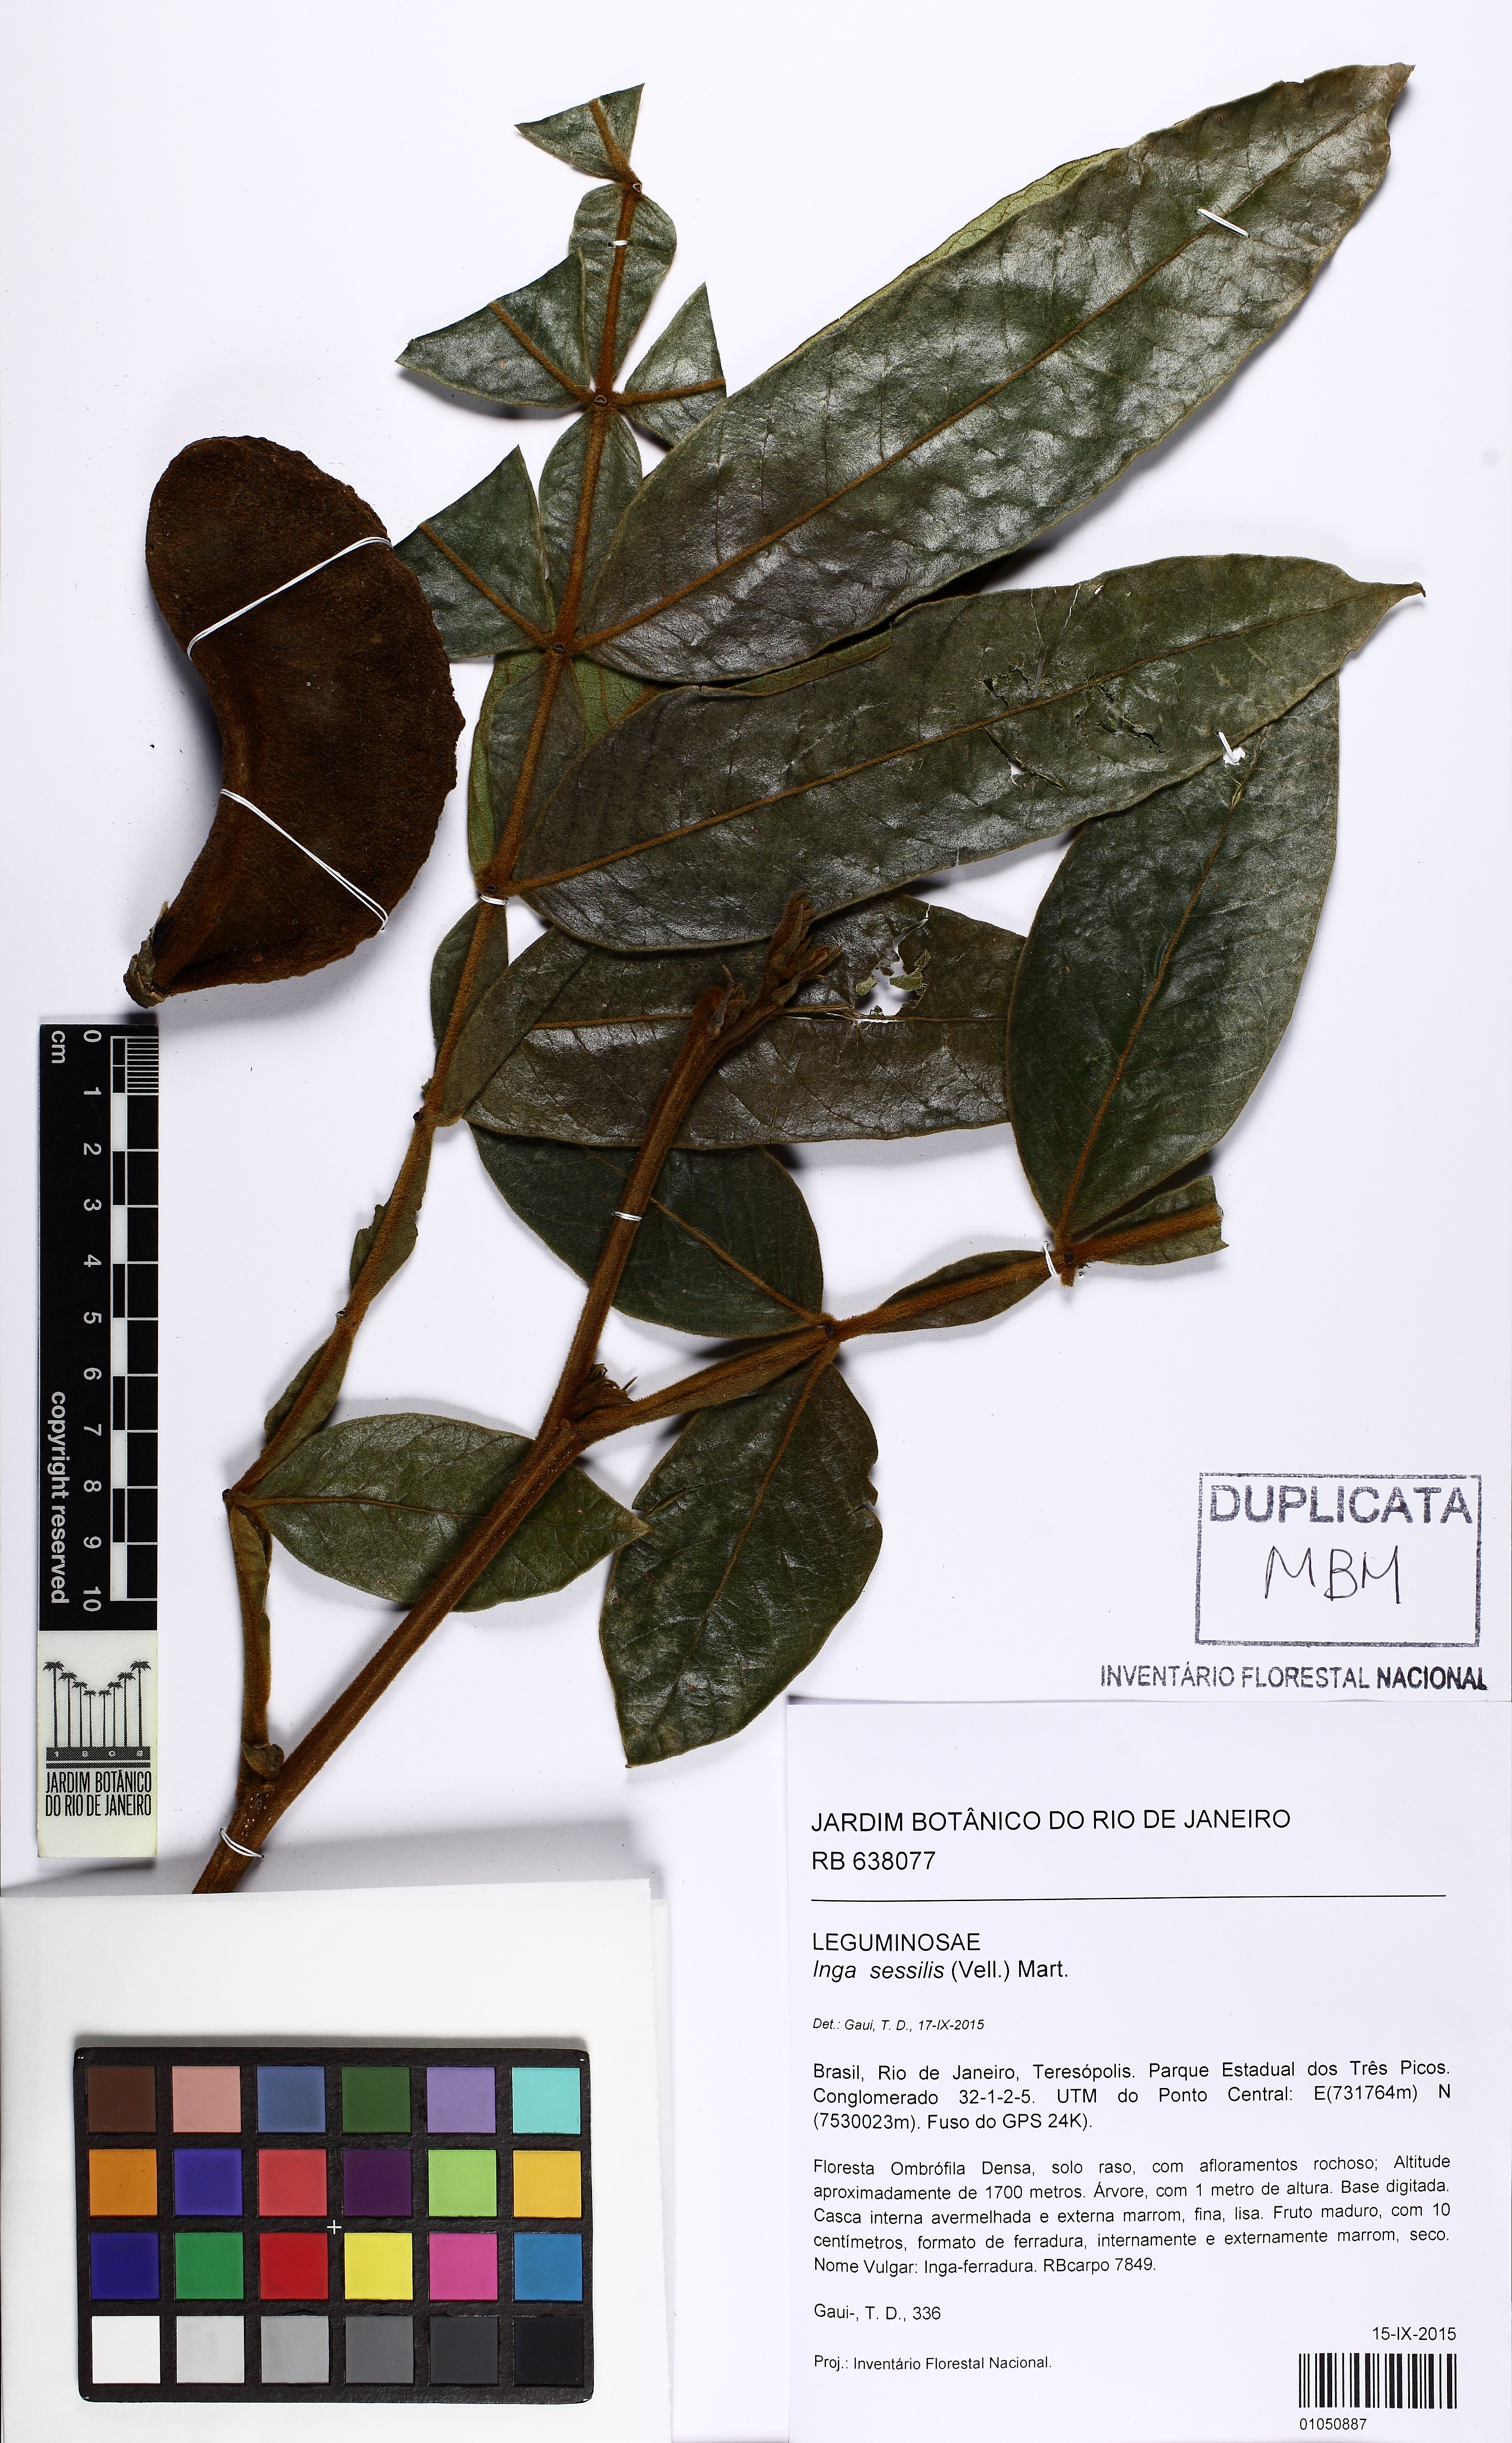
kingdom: Plantae
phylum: Tracheophyta
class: Magnoliopsida
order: Fabales
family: Fabaceae
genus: Inga
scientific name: Inga sessilis
